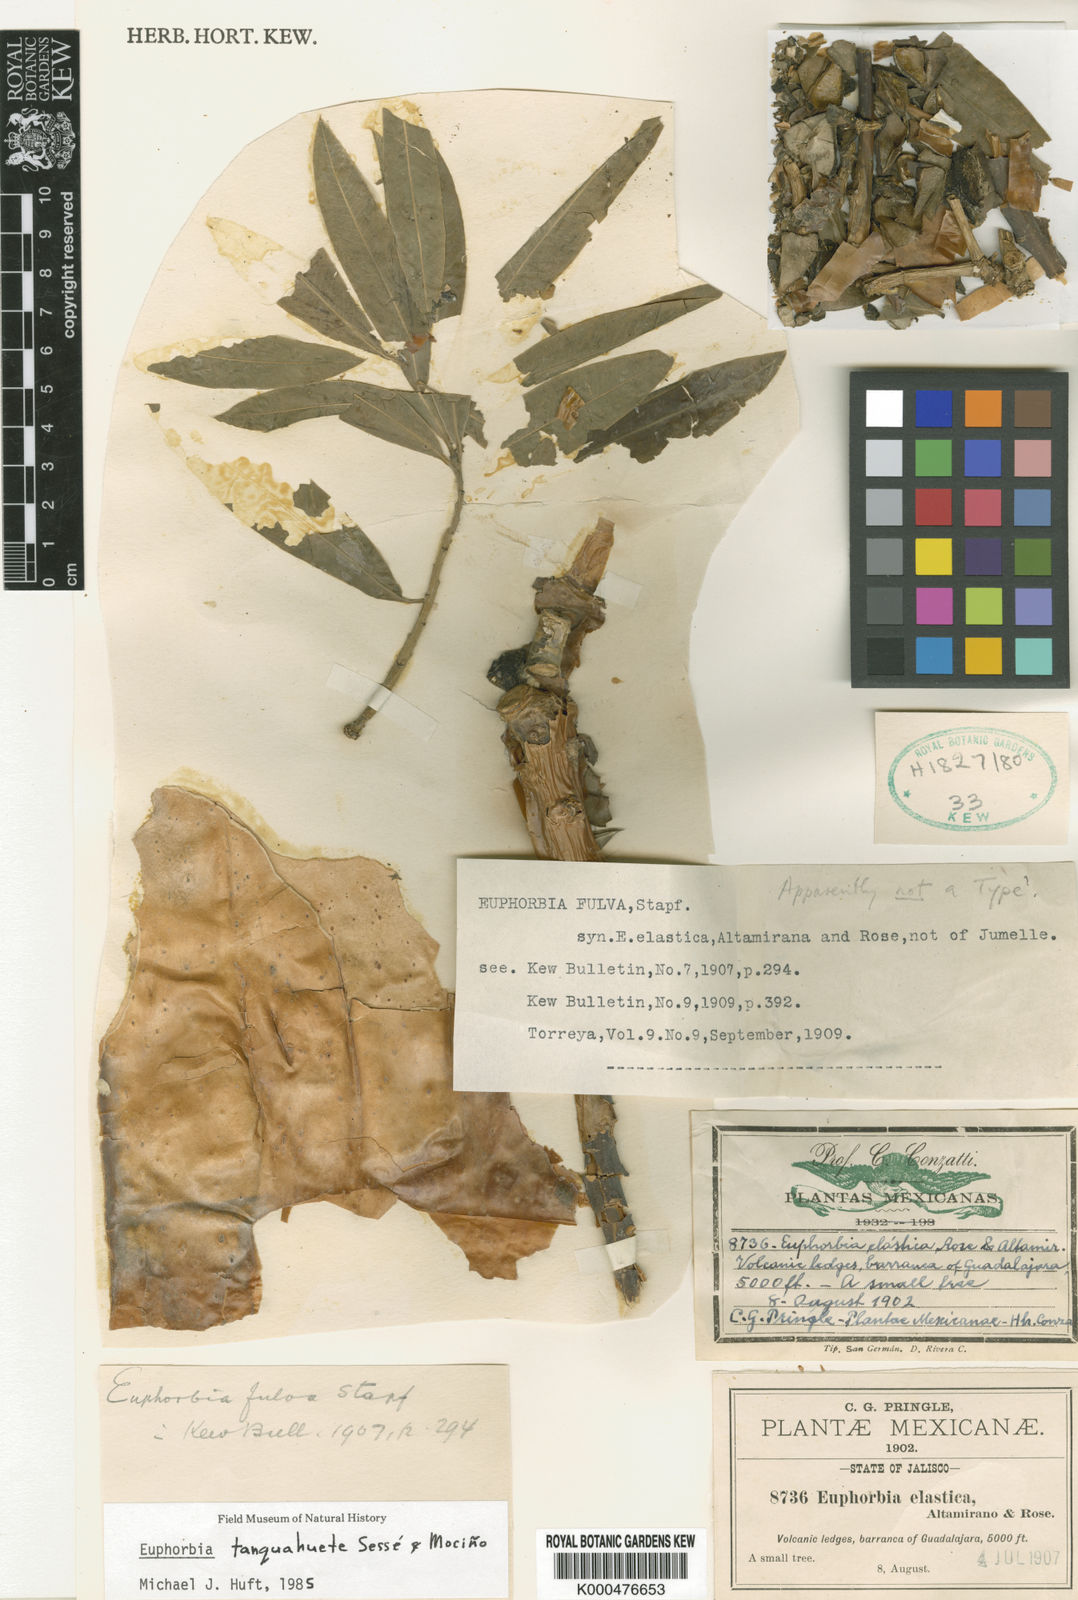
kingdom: Plantae
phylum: Tracheophyta
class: Magnoliopsida
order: Malpighiales
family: Euphorbiaceae
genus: Euphorbia
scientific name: Euphorbia
